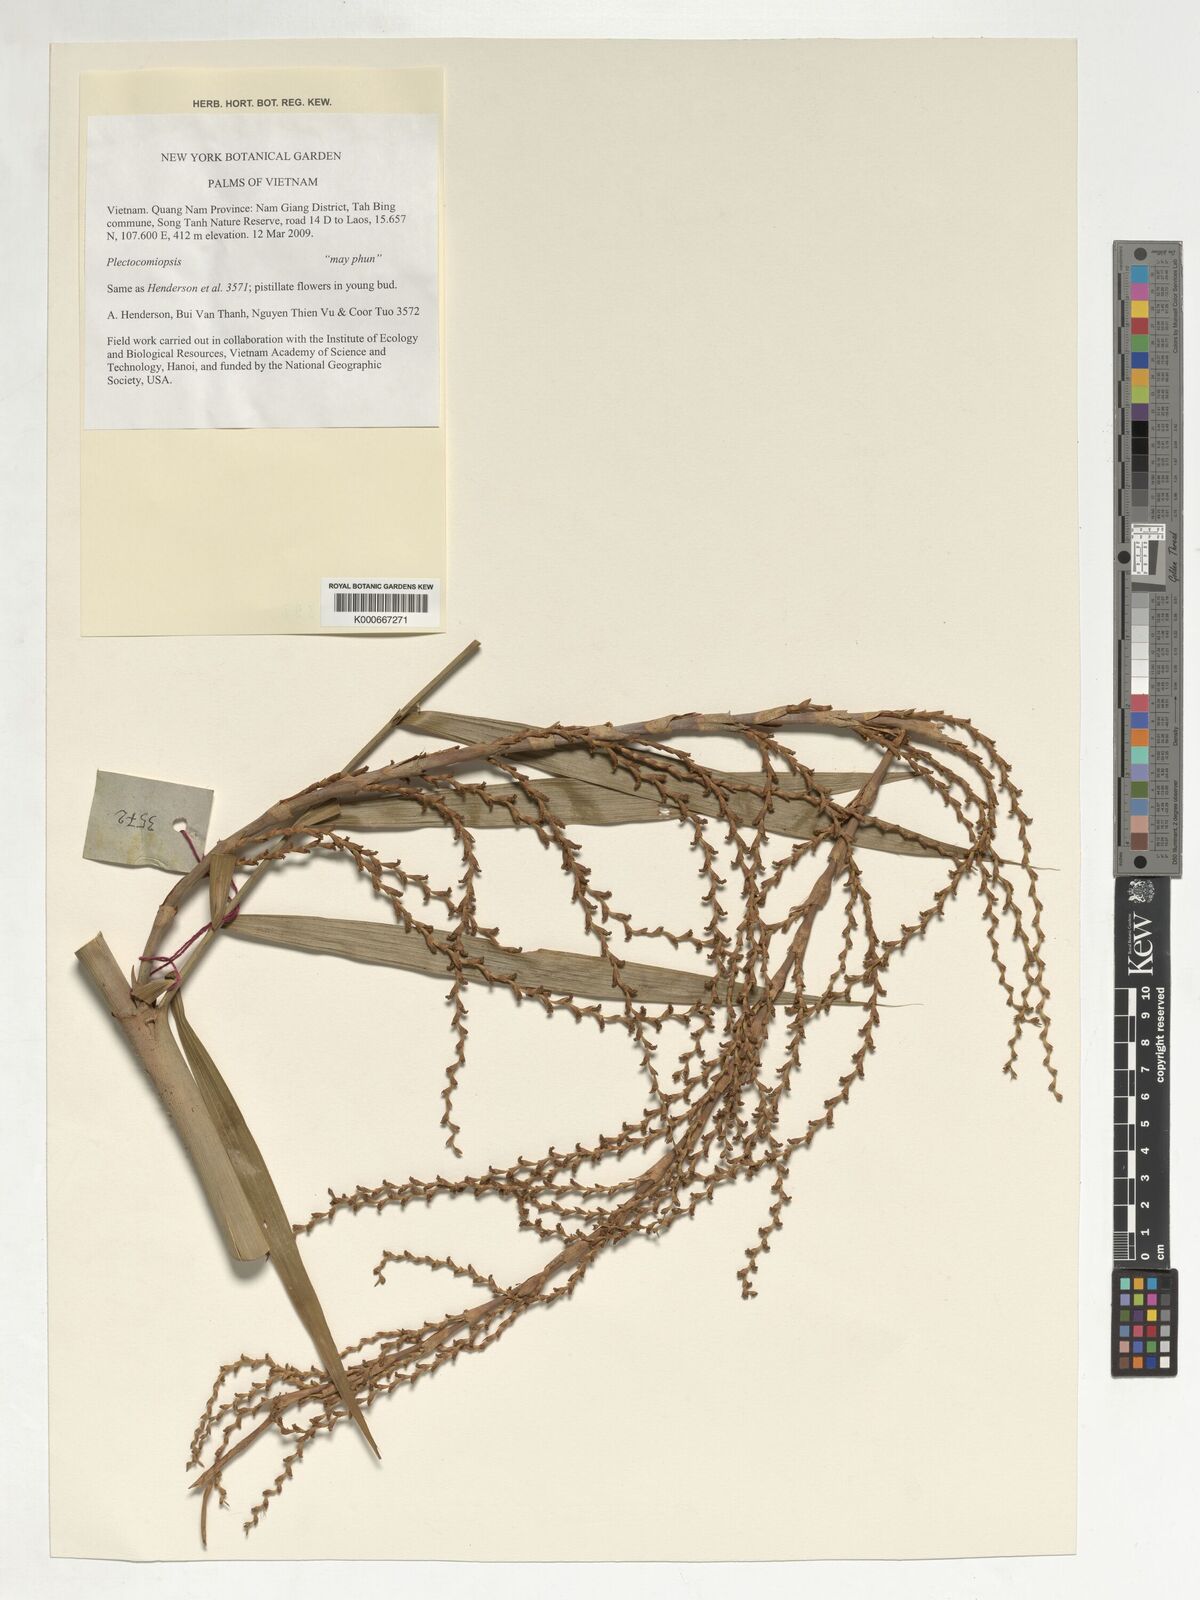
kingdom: Plantae
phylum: Tracheophyta
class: Liliopsida
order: Arecales
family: Arecaceae
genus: Plectocomiopsis
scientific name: Plectocomiopsis
